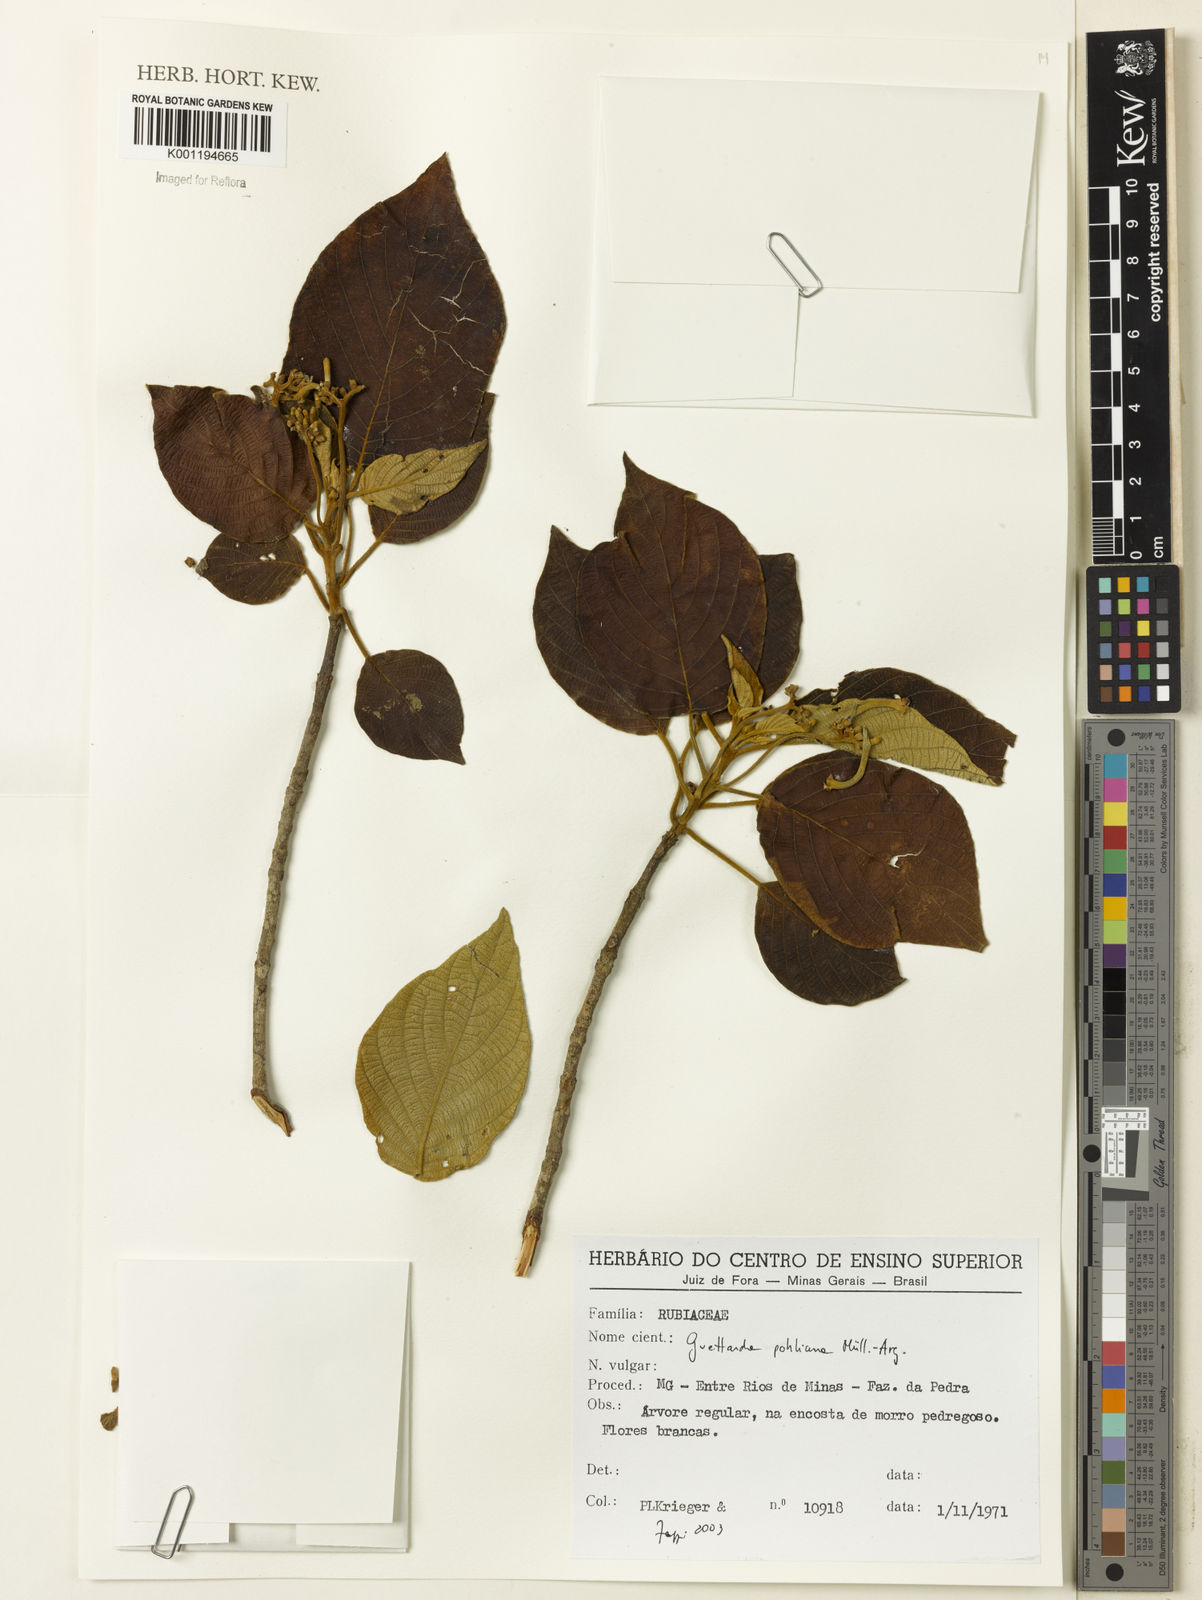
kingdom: Plantae
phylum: Tracheophyta
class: Magnoliopsida
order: Gentianales
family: Rubiaceae
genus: Guettarda
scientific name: Guettarda
